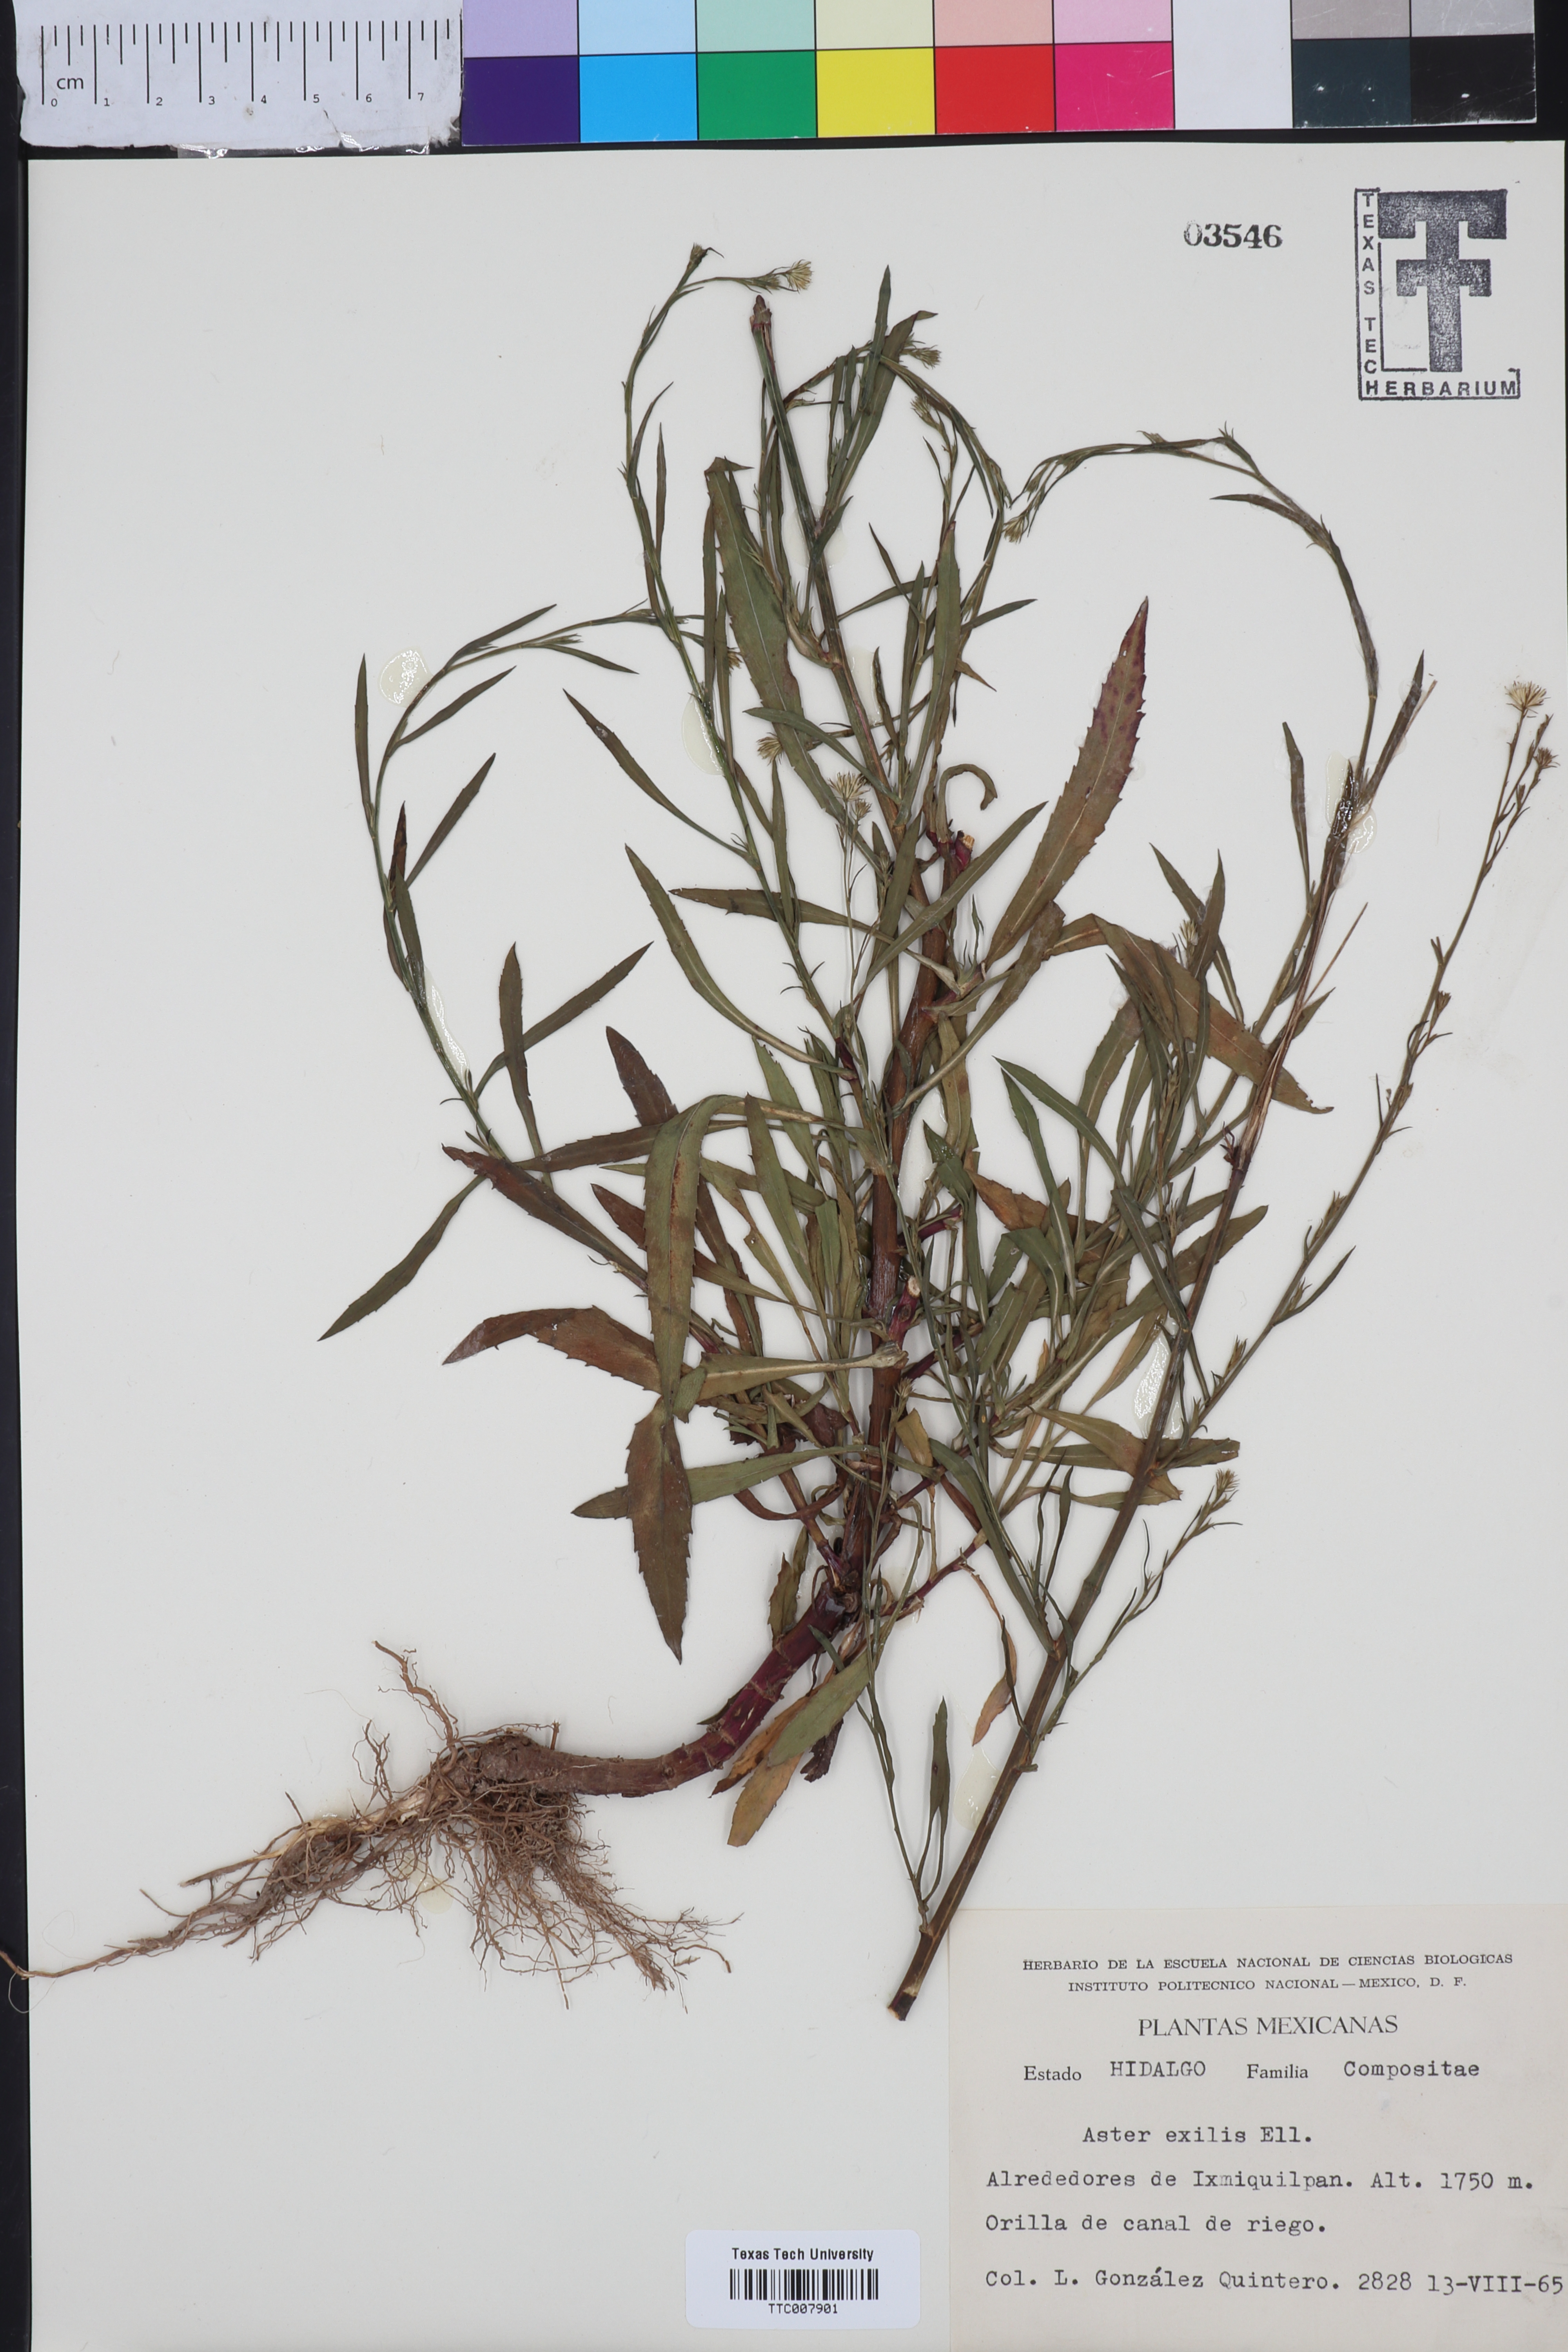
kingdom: Plantae
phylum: Tracheophyta
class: Magnoliopsida
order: Asterales
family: Asteraceae
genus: Symphyotrichum
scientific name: Symphyotrichum expansum
